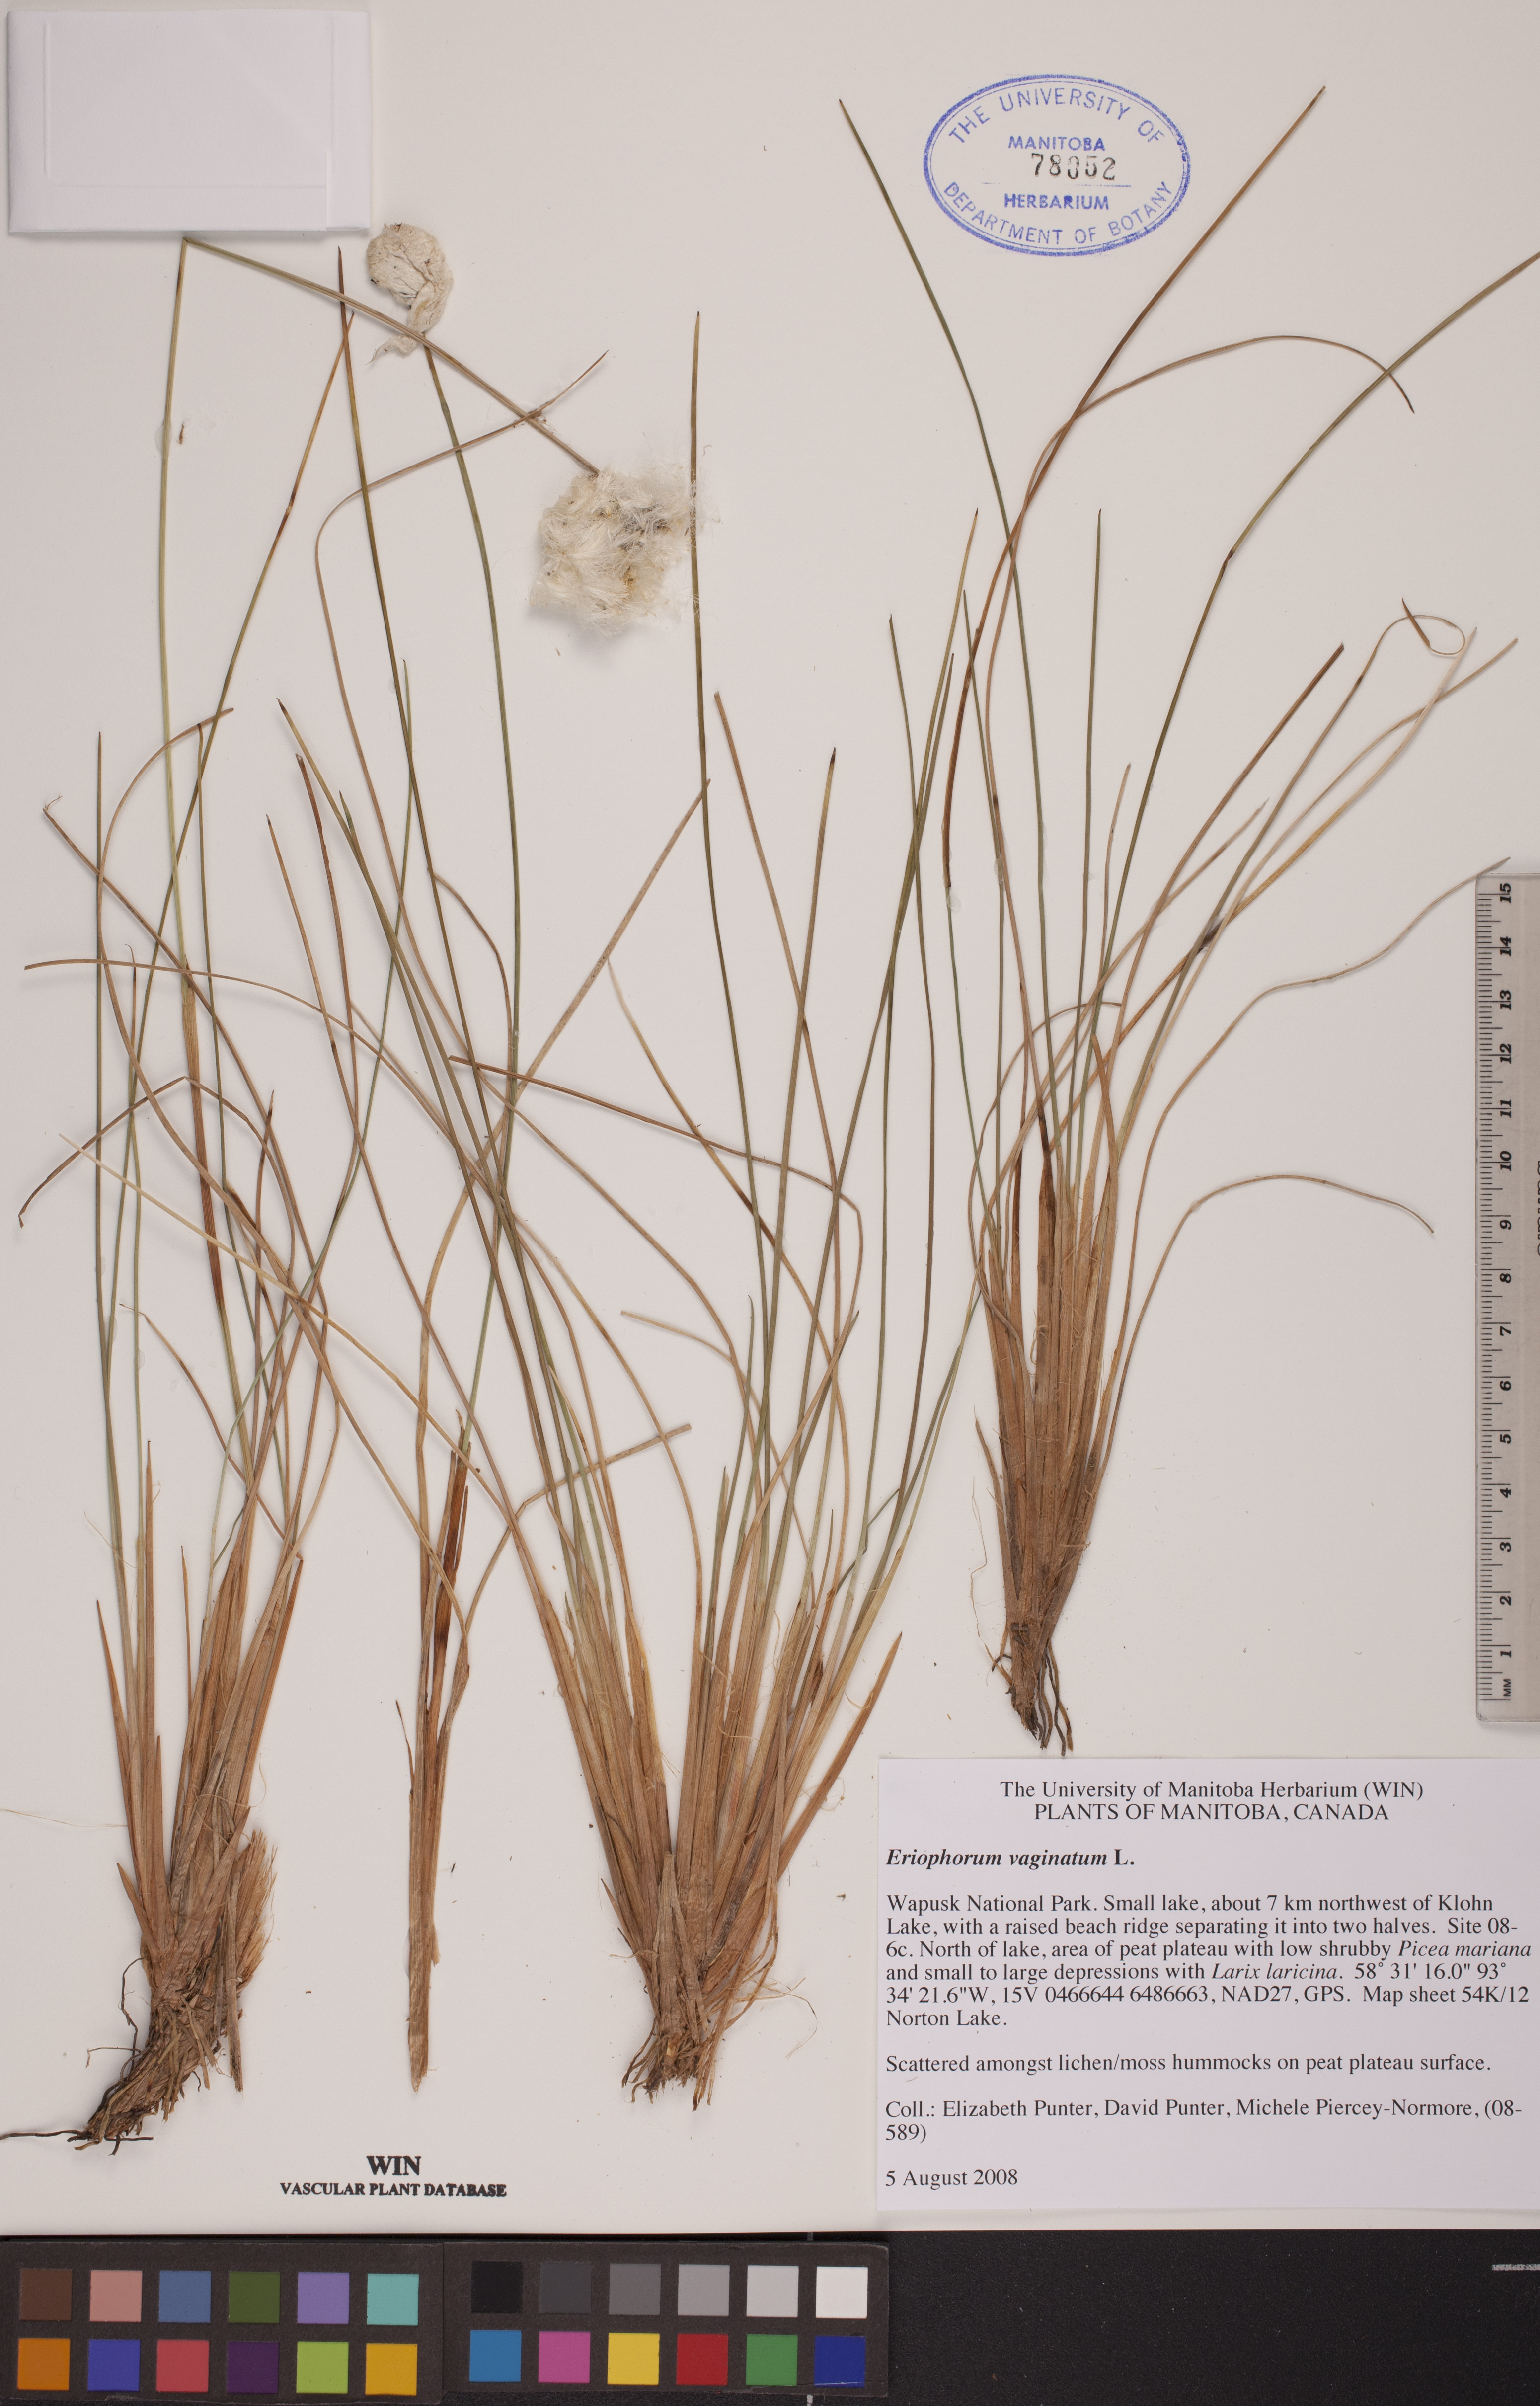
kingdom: Plantae
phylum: Tracheophyta
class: Liliopsida
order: Poales
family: Cyperaceae
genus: Eriophorum
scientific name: Eriophorum vaginatum
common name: Hare's-tail cottongrass
